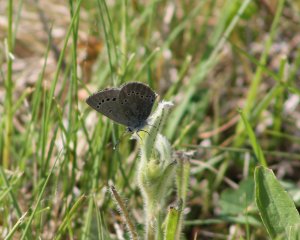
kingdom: Animalia
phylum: Arthropoda
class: Insecta
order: Lepidoptera
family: Lycaenidae
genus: Glaucopsyche
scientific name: Glaucopsyche lygdamus
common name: Silvery Blue
